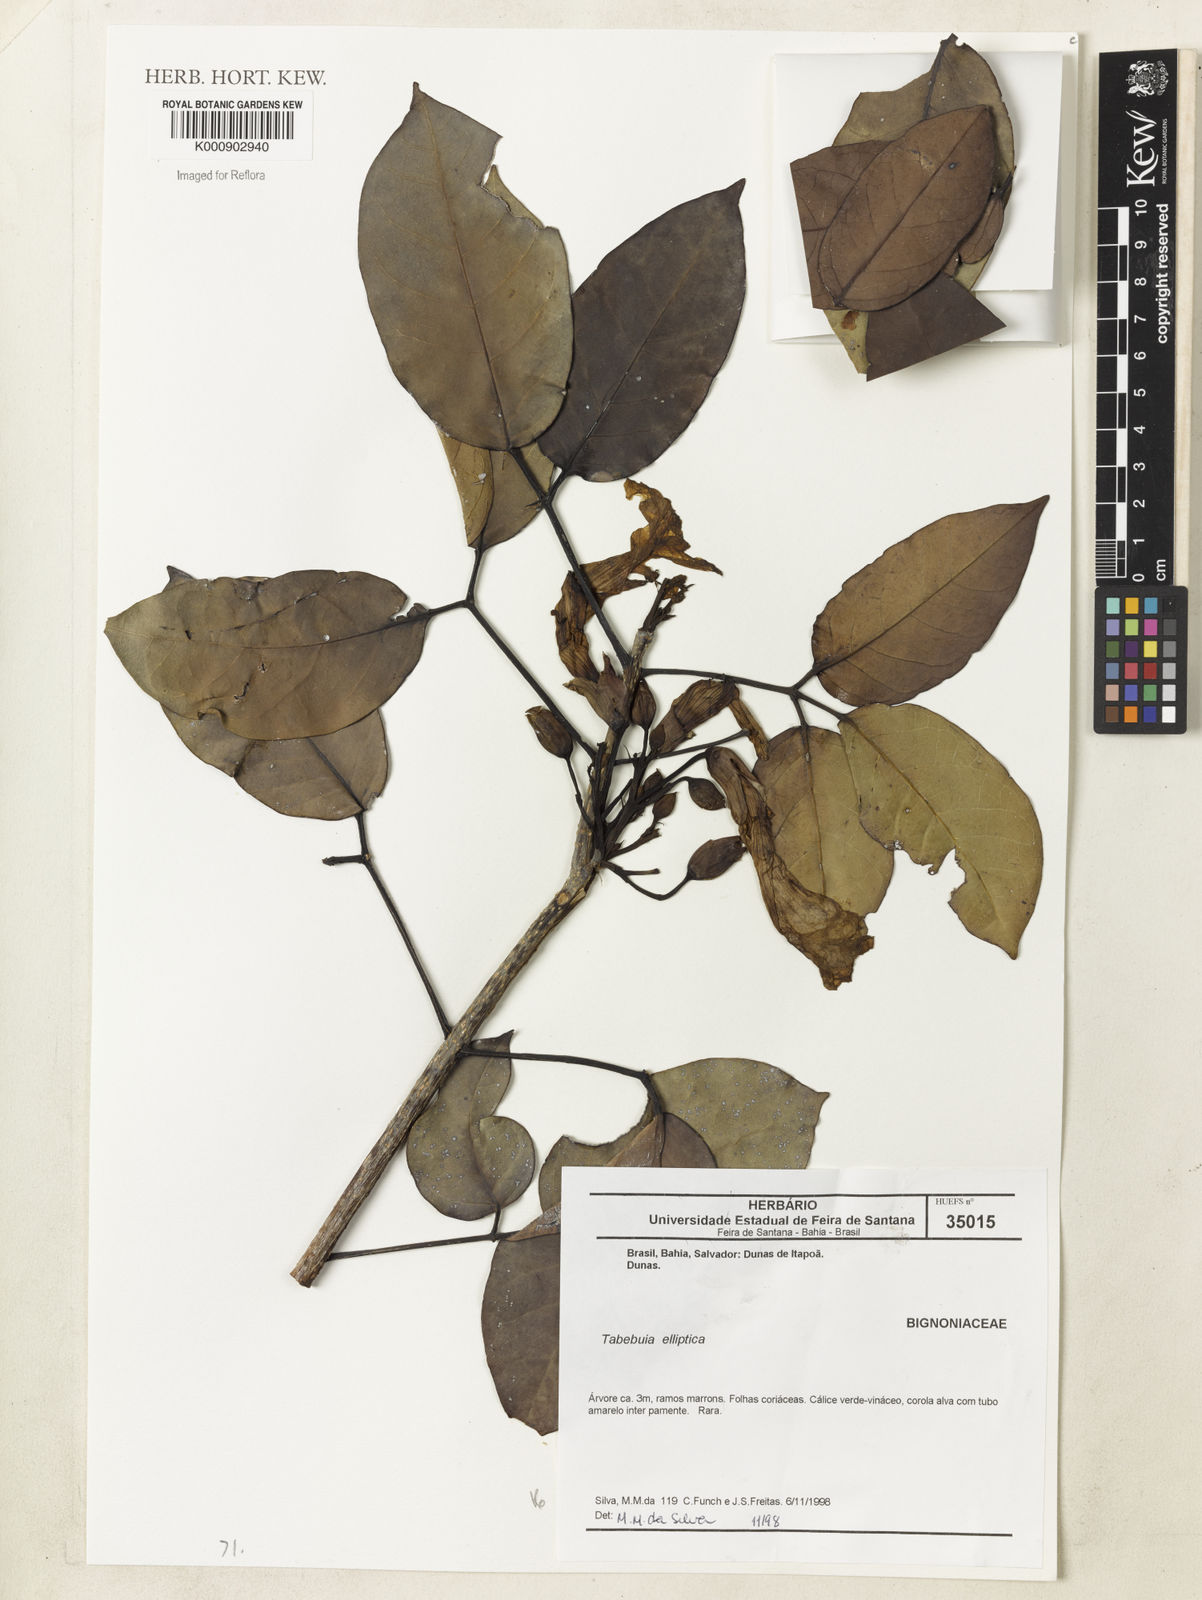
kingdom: Plantae
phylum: Tracheophyta
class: Magnoliopsida
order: Lamiales
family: Bignoniaceae
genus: Tabebuia
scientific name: Tabebuia elliptica
